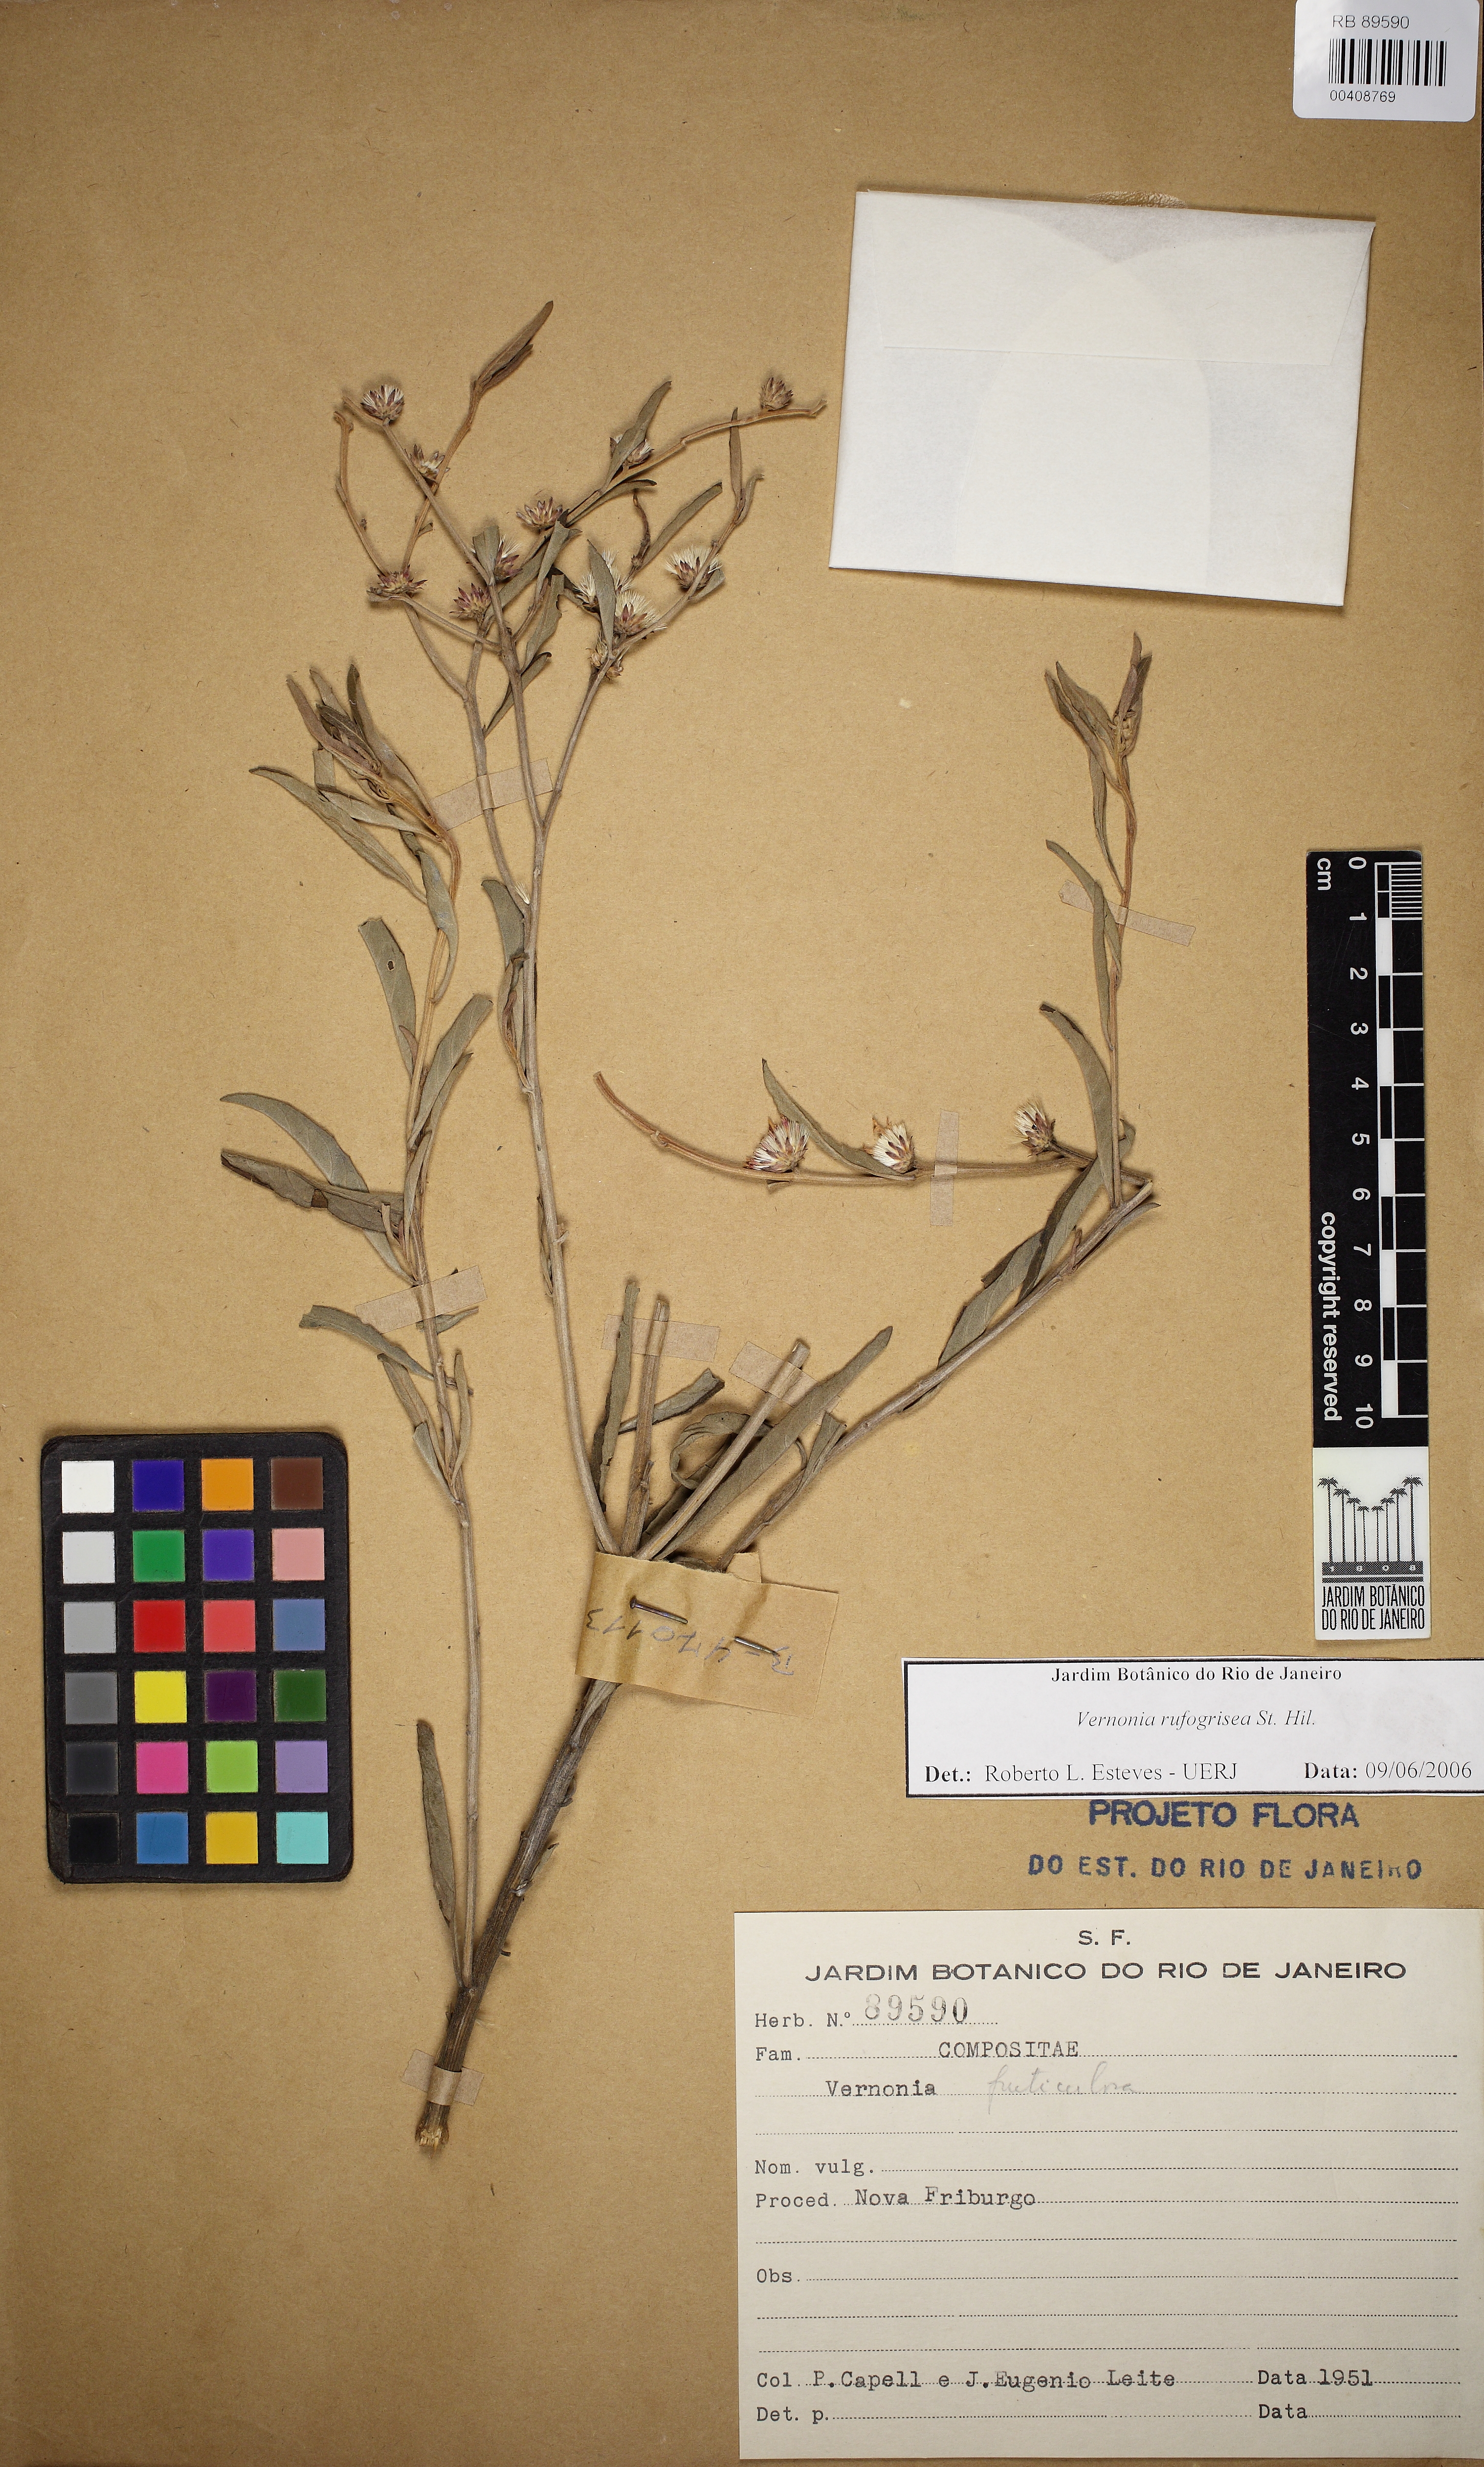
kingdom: Plantae
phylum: Tracheophyta
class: Magnoliopsida
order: Asterales
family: Asteraceae
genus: Lepidaploa
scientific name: Lepidaploa rufogrisea
